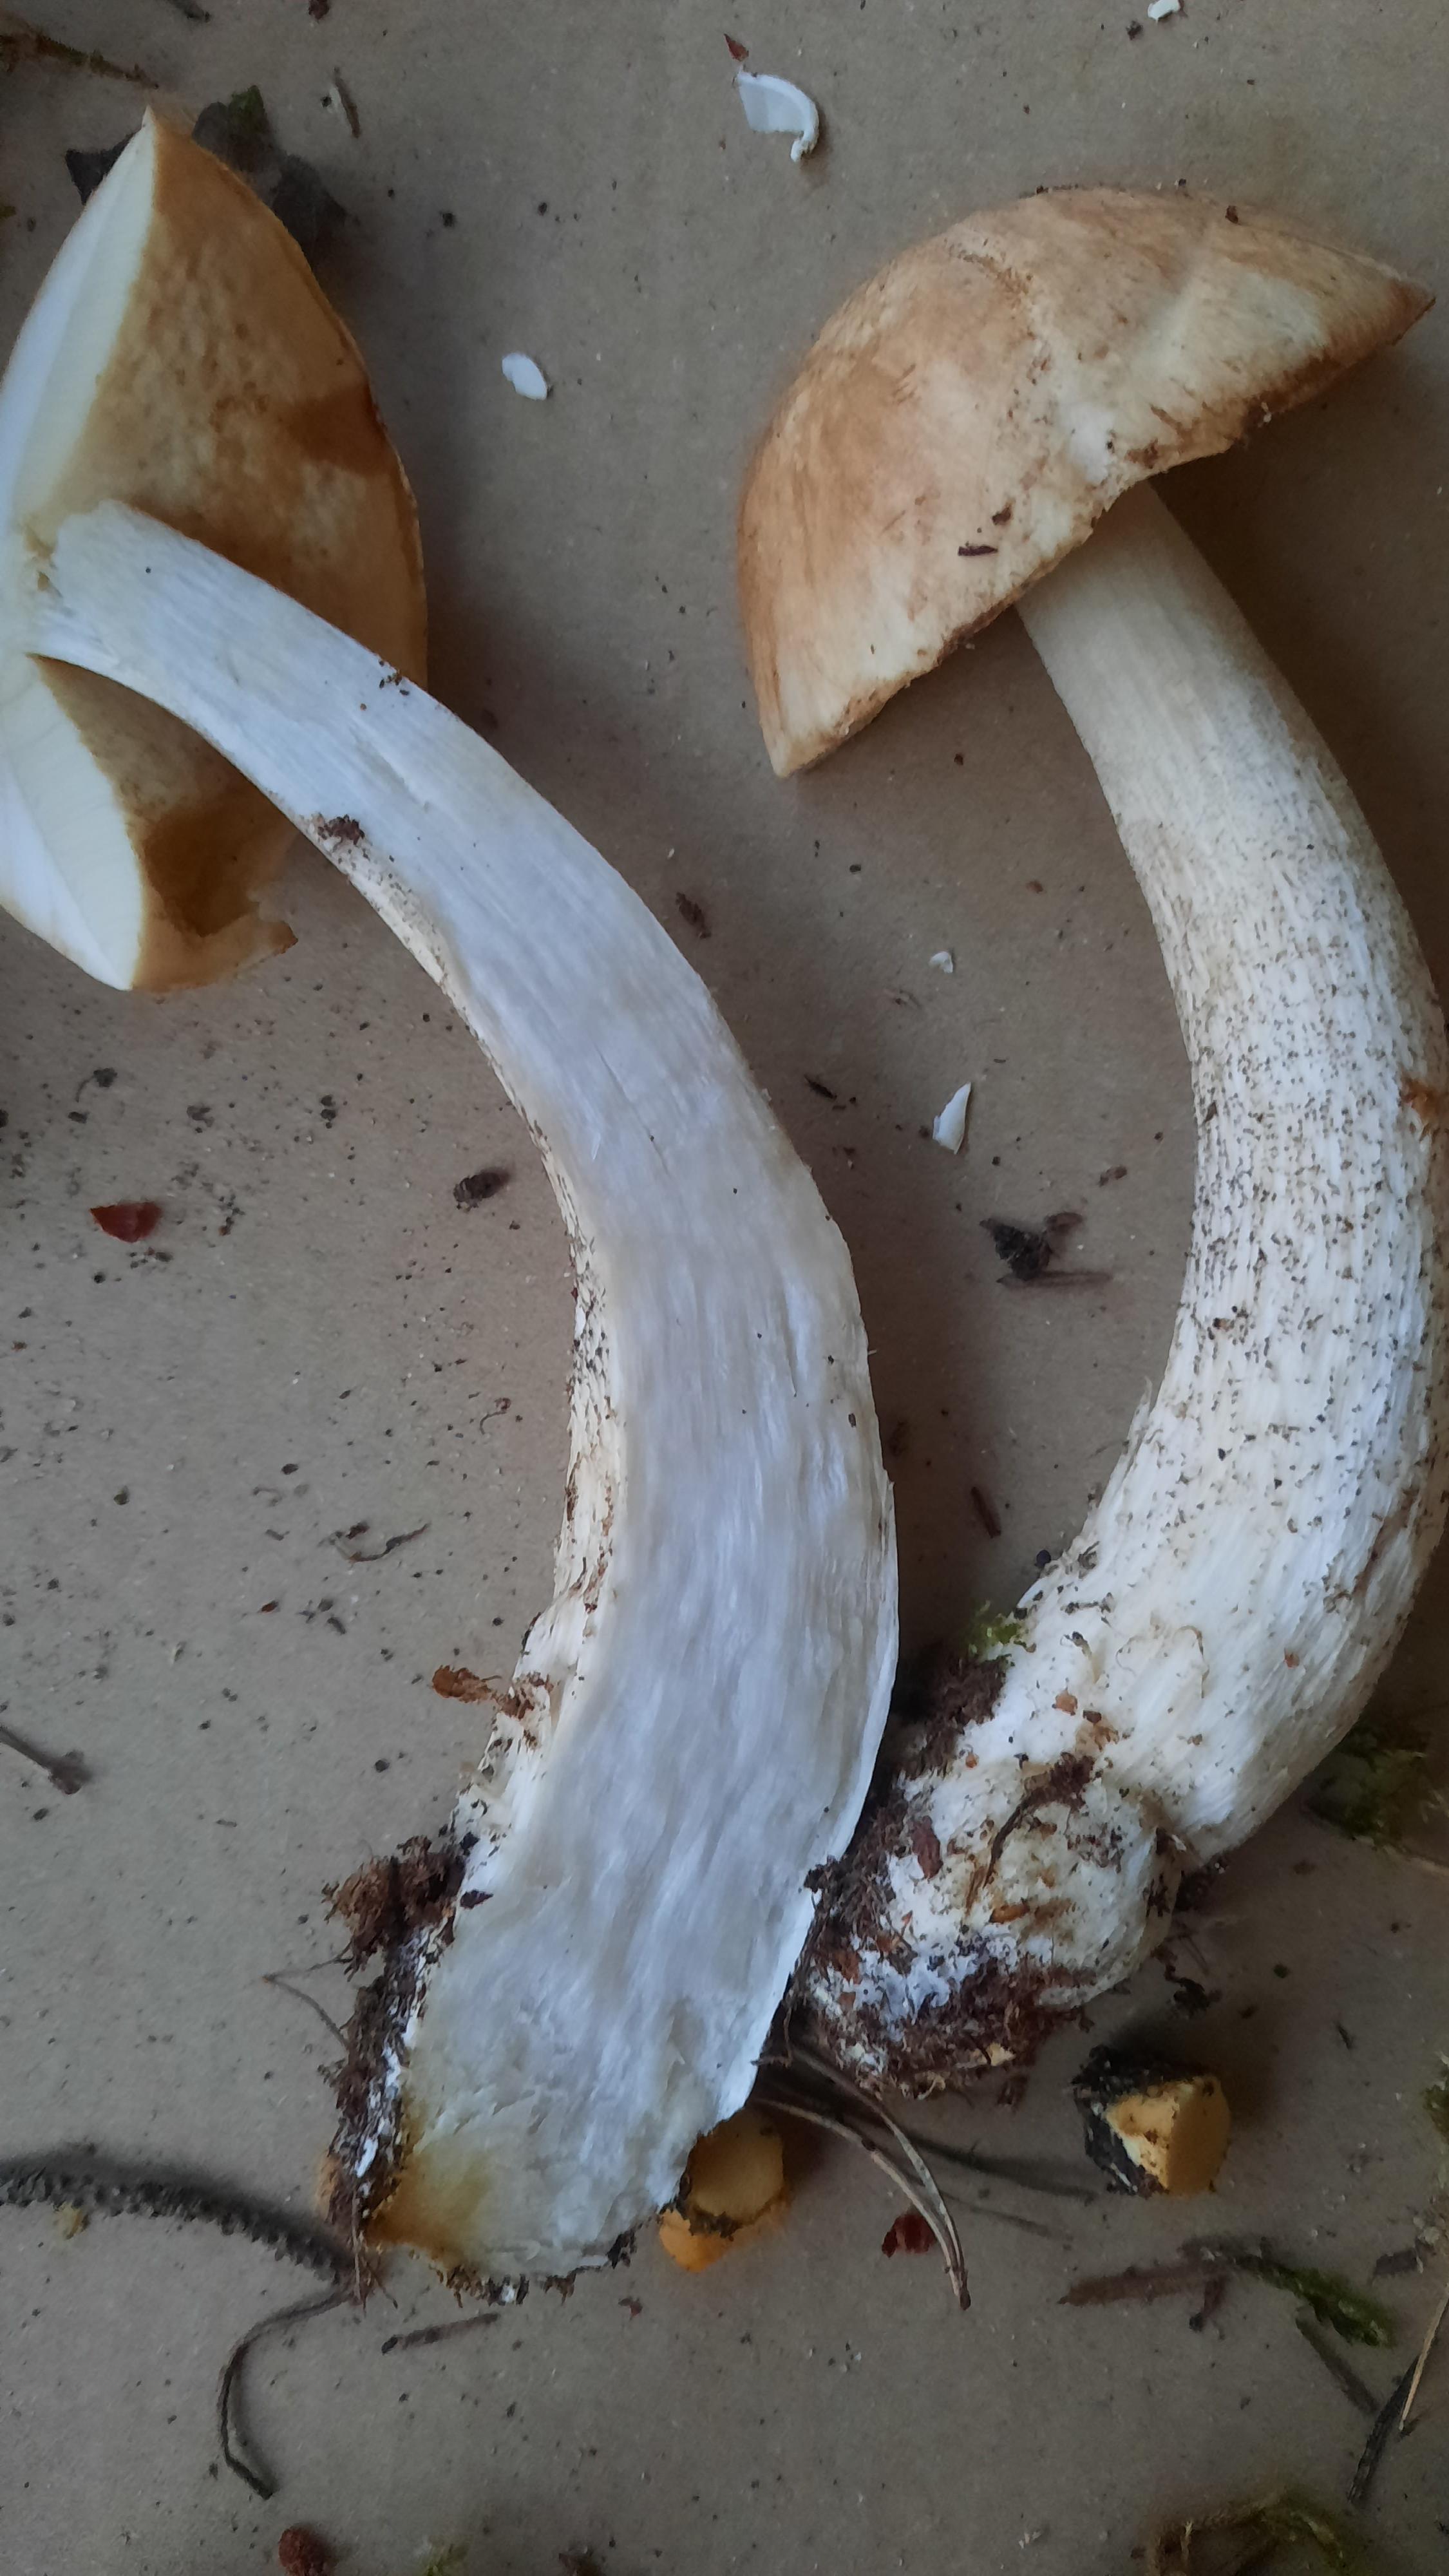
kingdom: Fungi
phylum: Basidiomycota
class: Agaricomycetes
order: Boletales
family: Boletaceae
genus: Leccinum
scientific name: Leccinum
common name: skælrørhat
